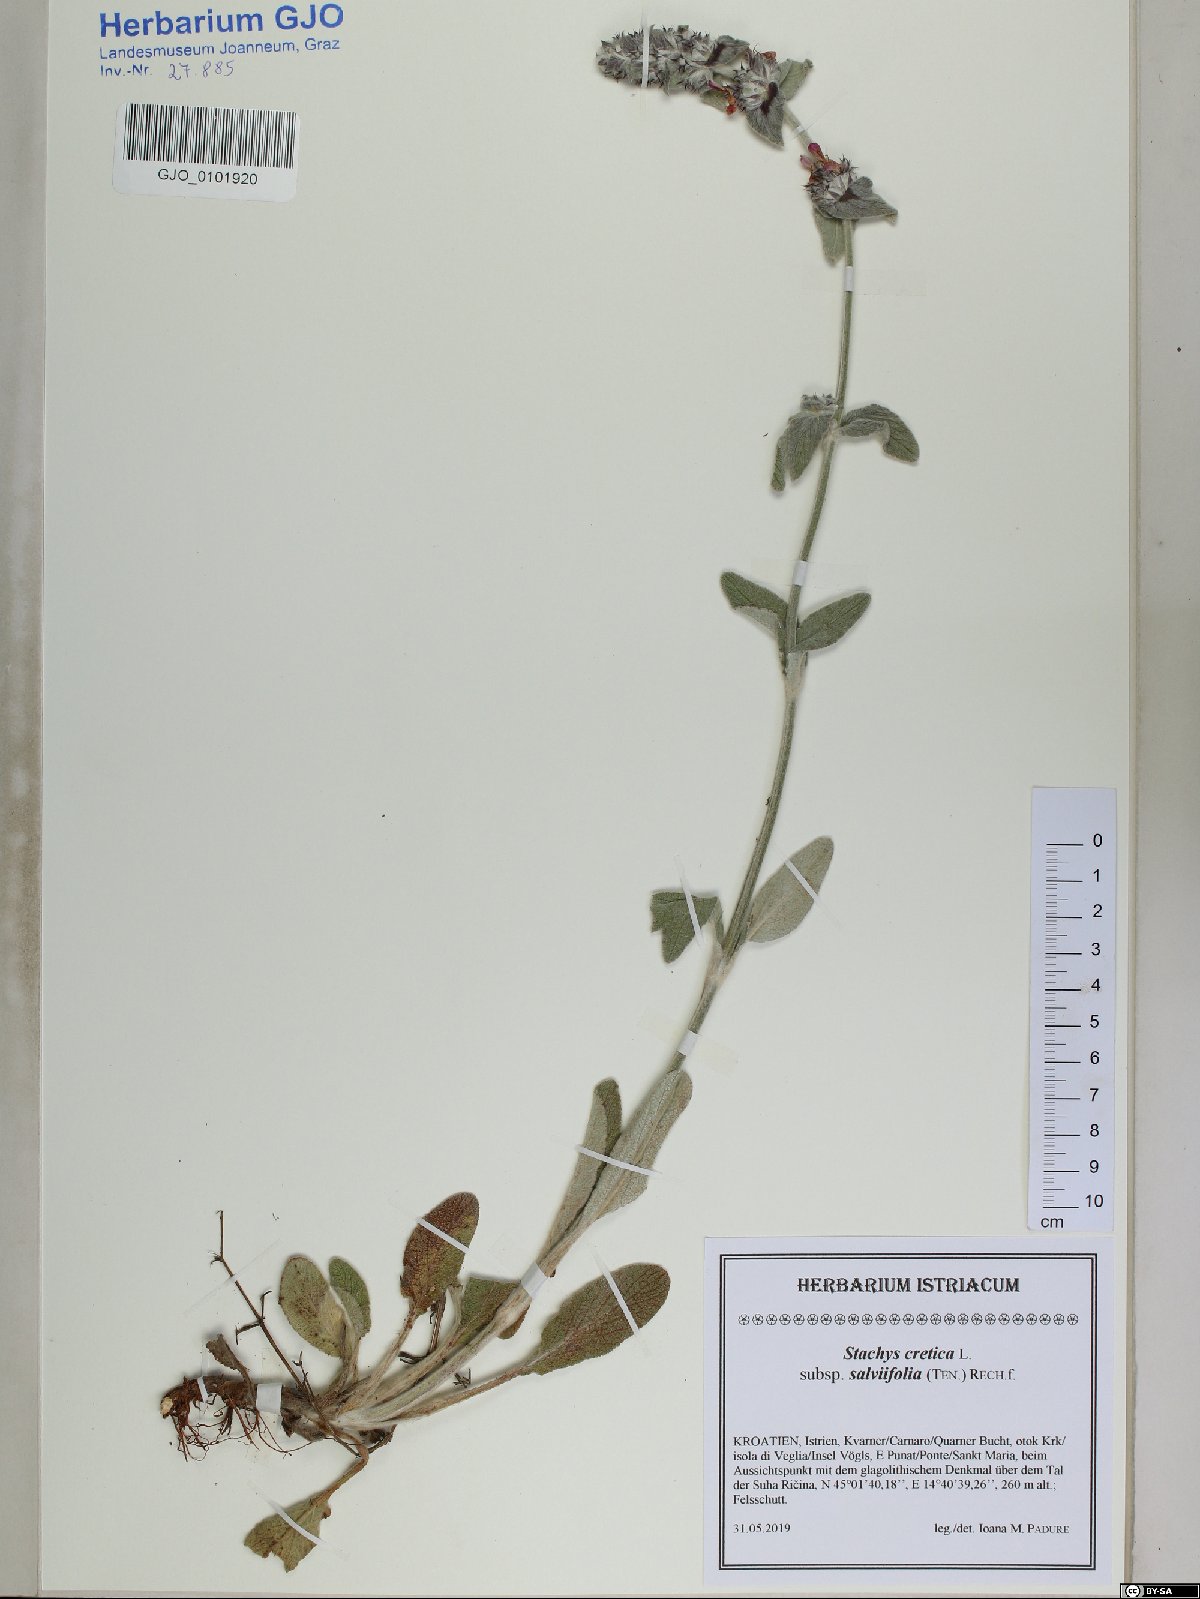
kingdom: Plantae
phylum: Tracheophyta
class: Magnoliopsida
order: Lamiales
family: Lamiaceae
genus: Stachys
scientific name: Stachys cretica
